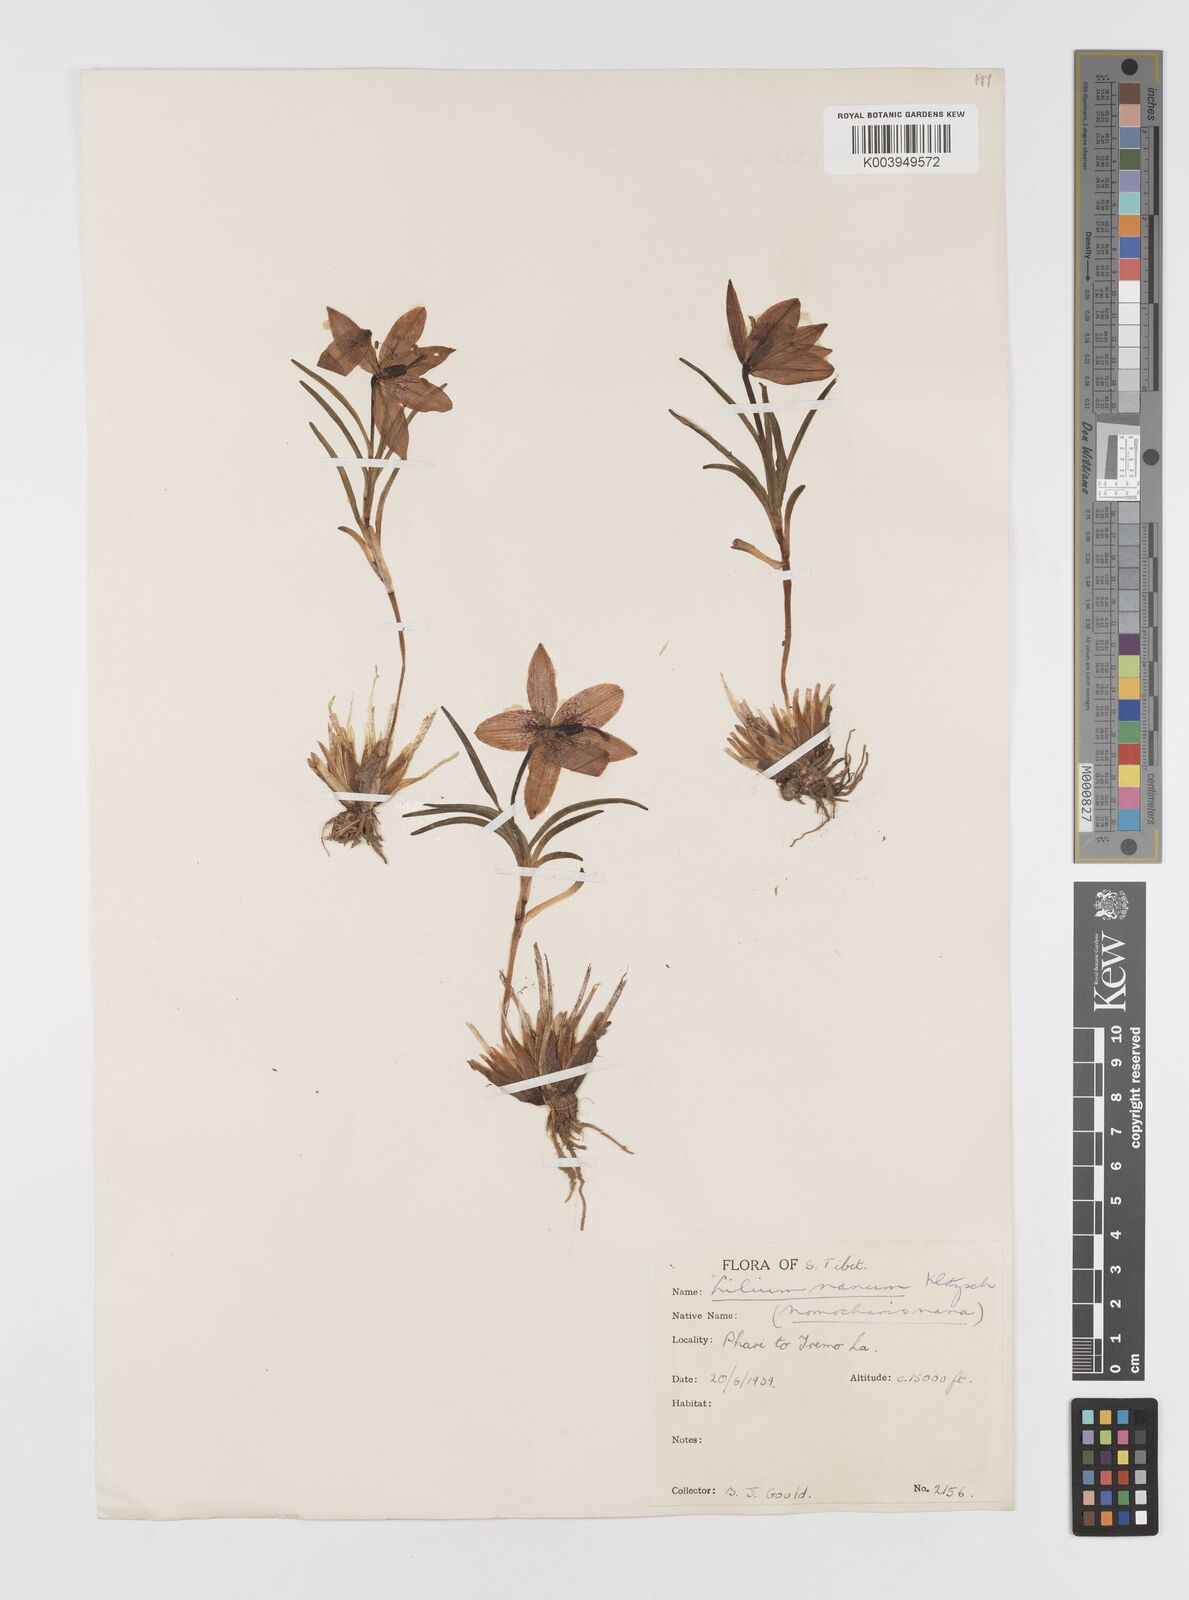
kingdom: Plantae
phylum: Tracheophyta
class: Liliopsida
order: Liliales
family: Liliaceae
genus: Lilium
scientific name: Lilium
